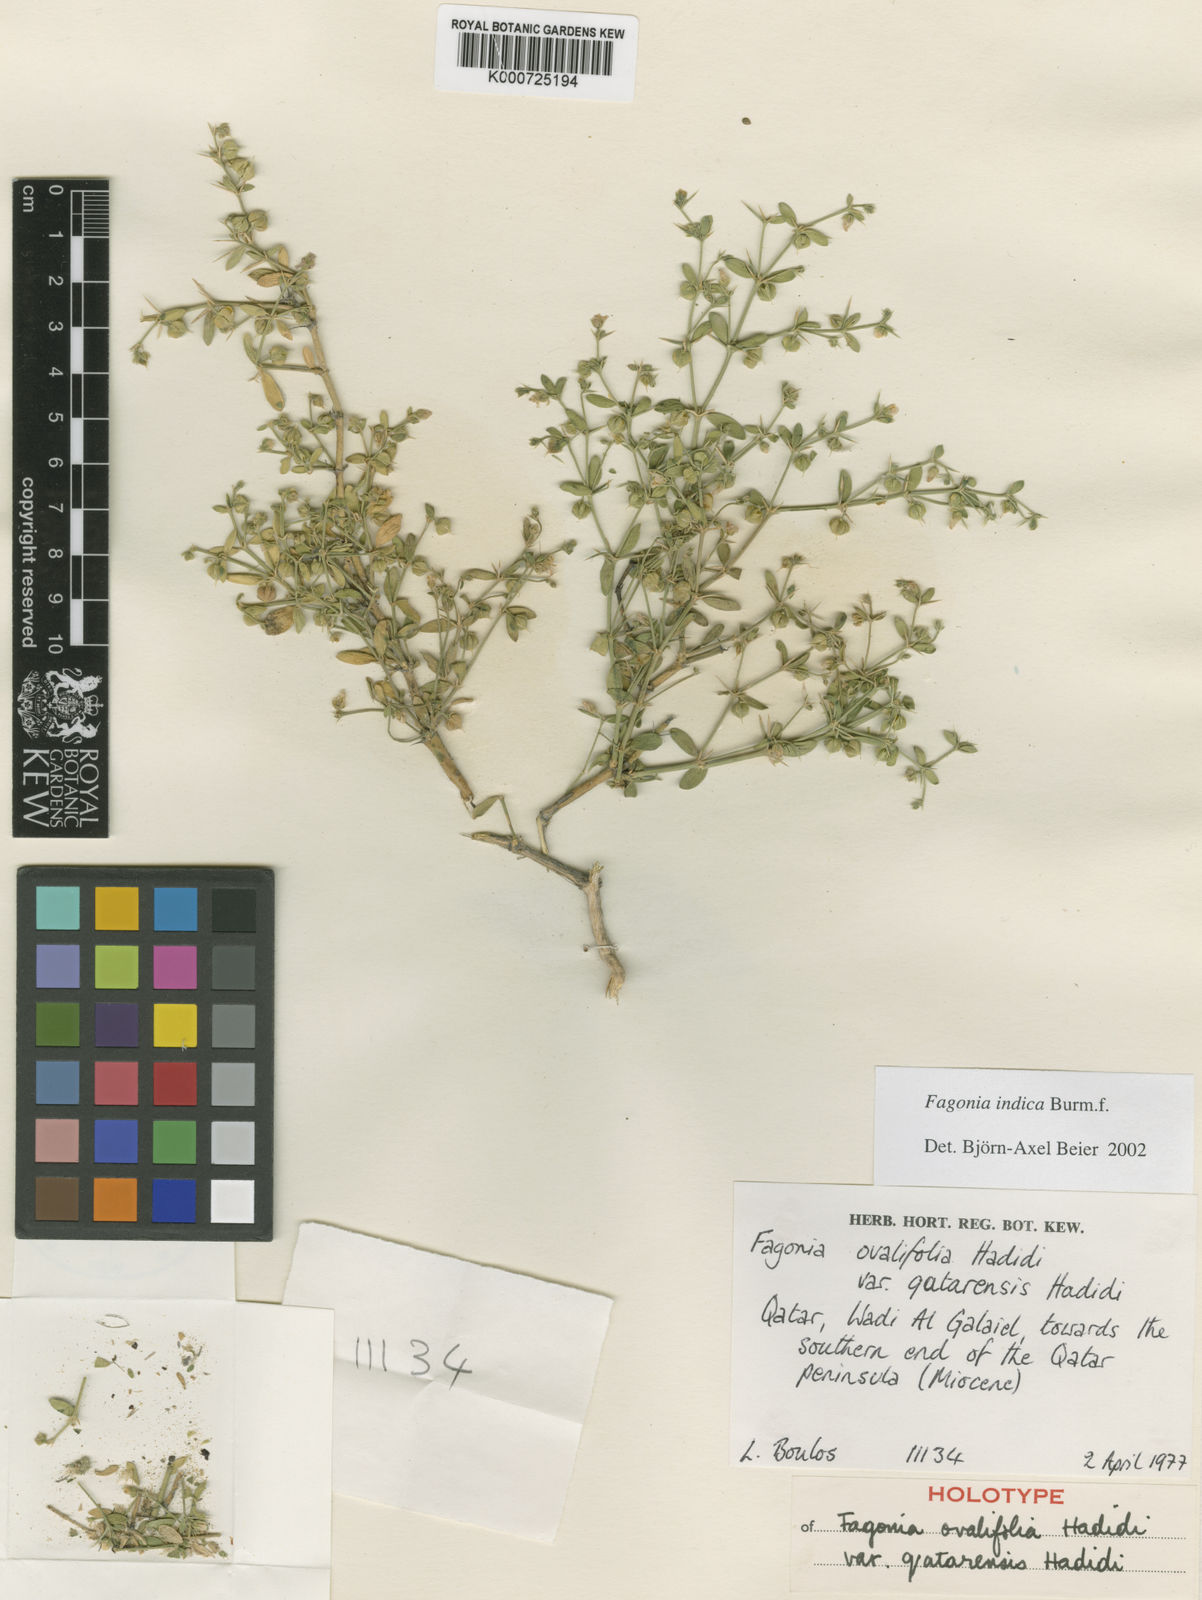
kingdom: Plantae
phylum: Tracheophyta
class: Magnoliopsida
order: Zygophyllales
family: Zygophyllaceae
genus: Fagonia
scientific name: Fagonia indica
